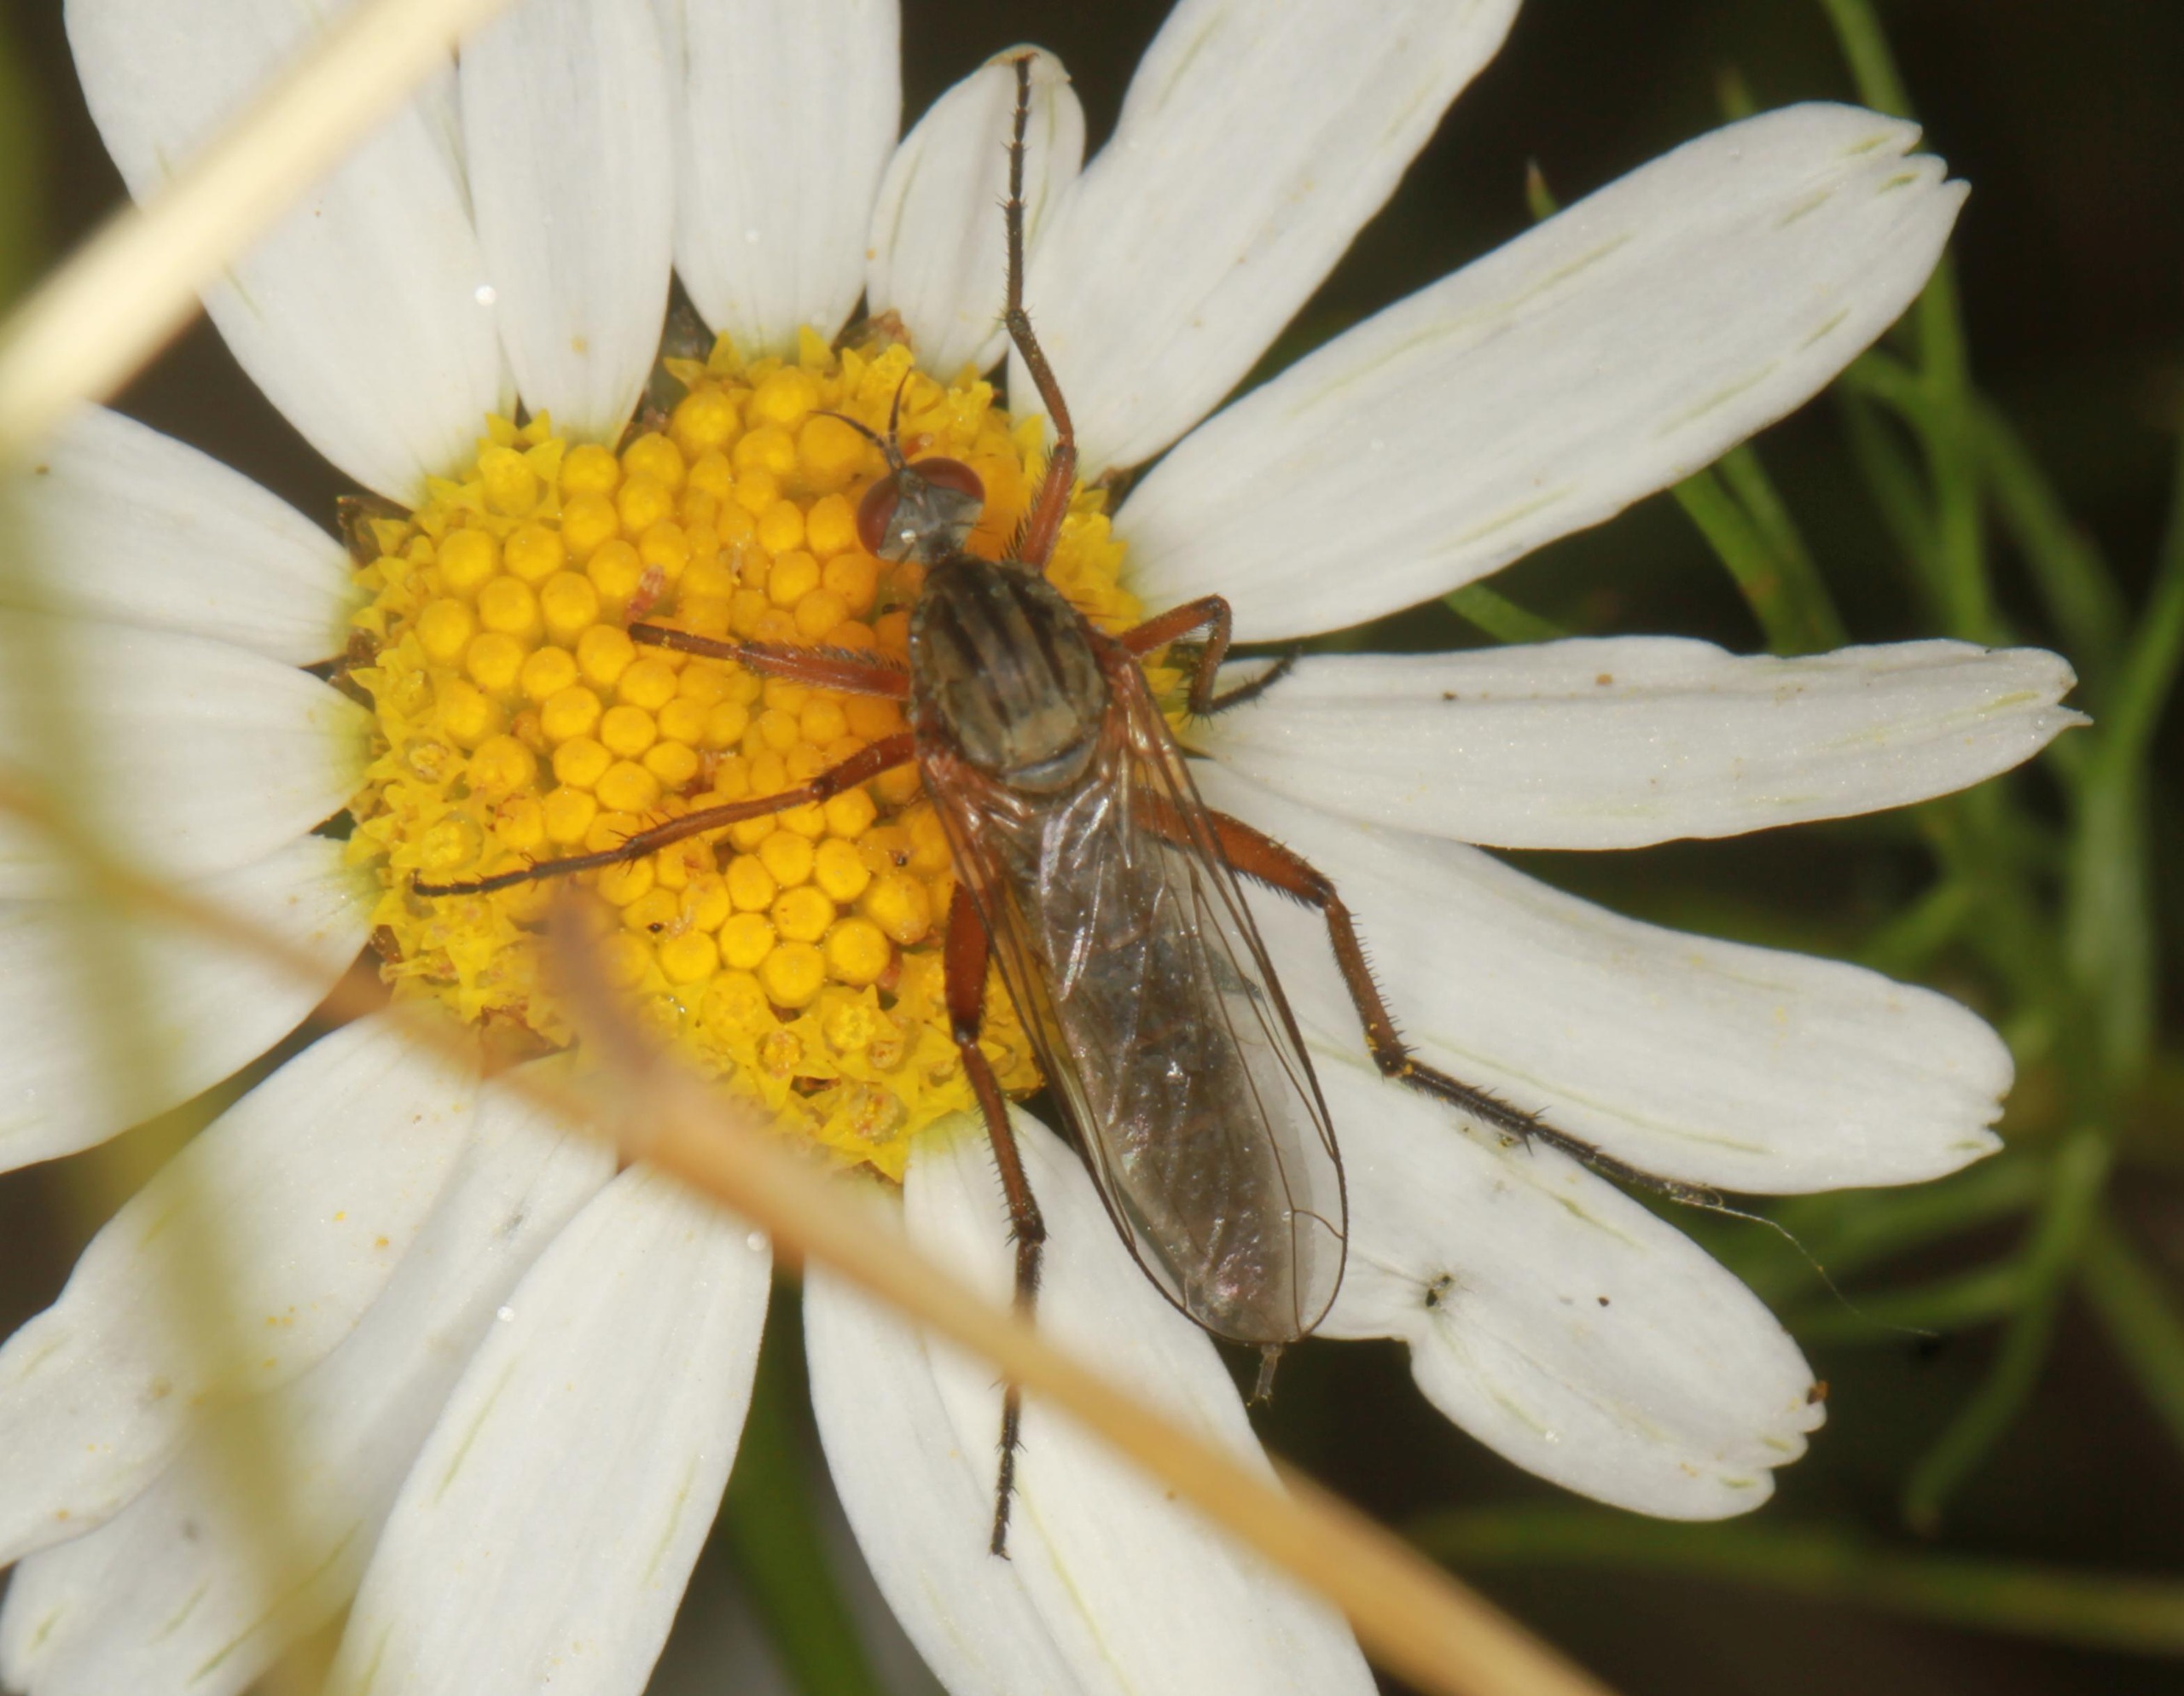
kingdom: Animalia
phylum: Arthropoda
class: Insecta
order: Diptera
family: Empididae
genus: Empis
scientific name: Empis livida
